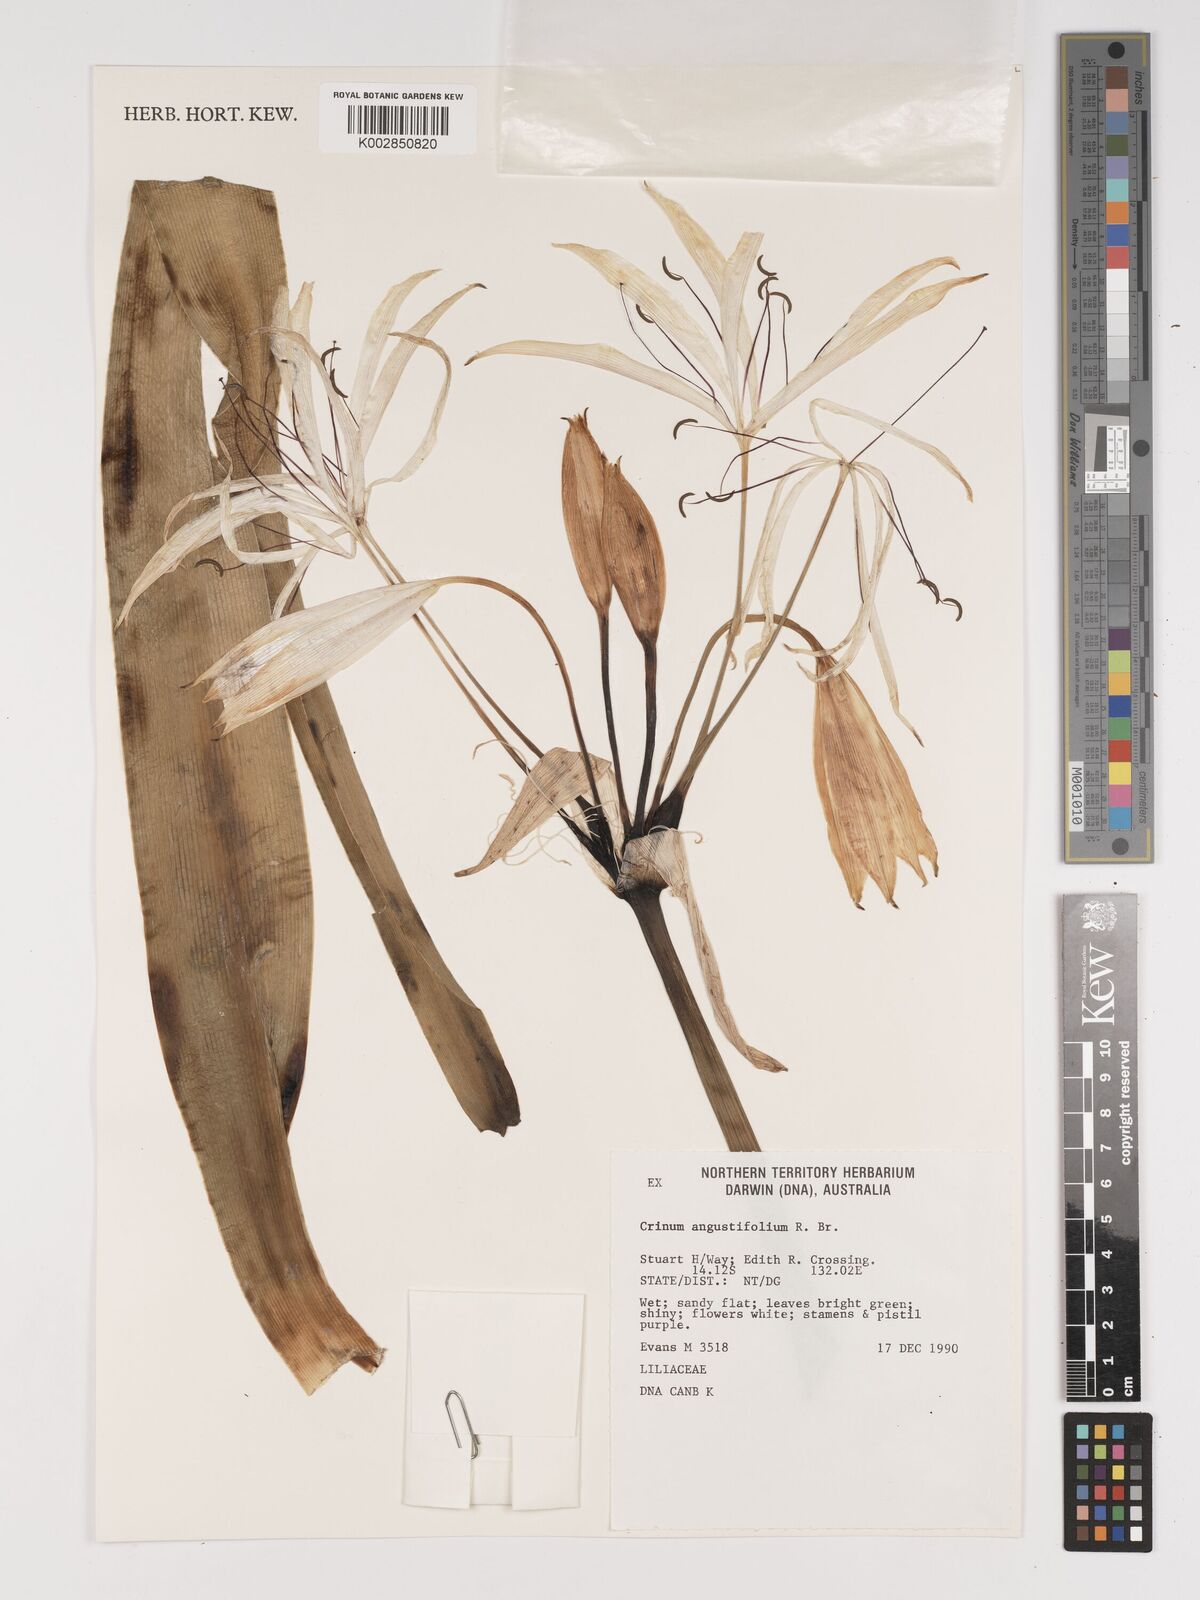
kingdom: Plantae
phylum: Tracheophyta
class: Liliopsida
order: Asparagales
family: Amaryllidaceae
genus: Crinum
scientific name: Crinum arenarium
